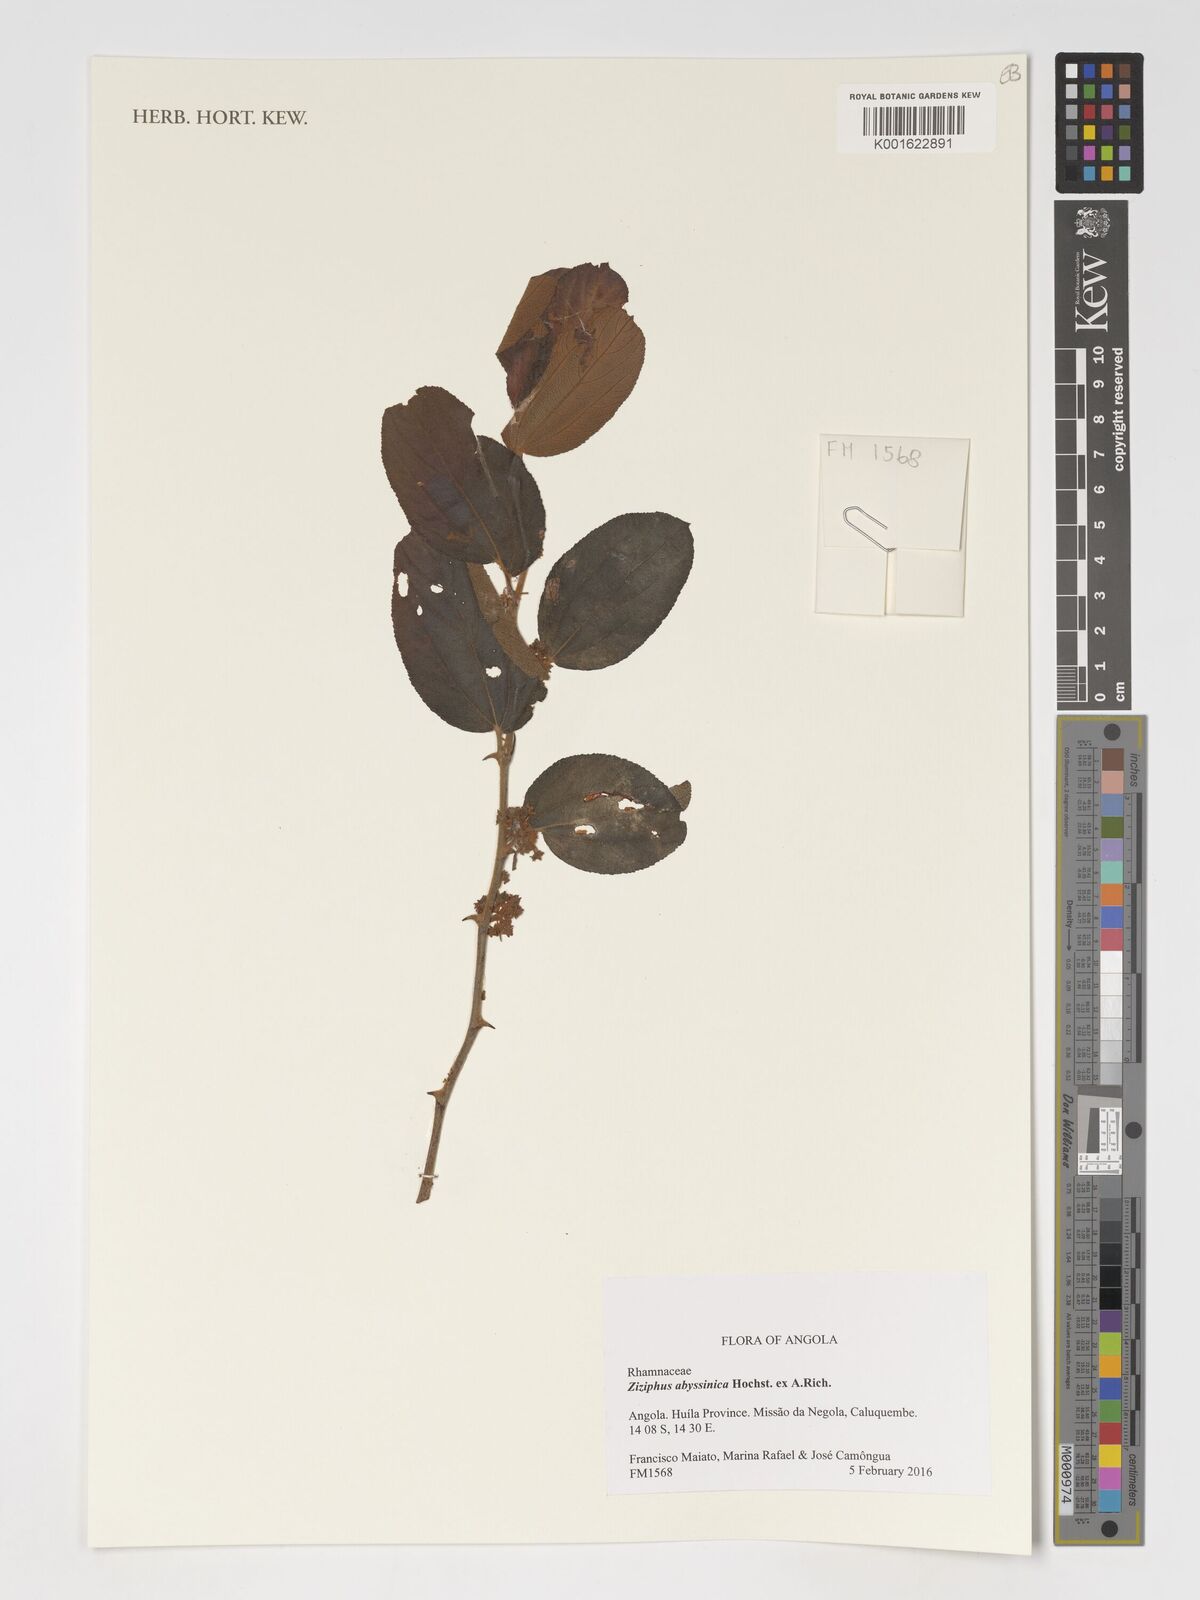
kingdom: Plantae
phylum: Tracheophyta
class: Magnoliopsida
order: Rosales
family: Rhamnaceae
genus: Ziziphus
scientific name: Ziziphus abyssinica
